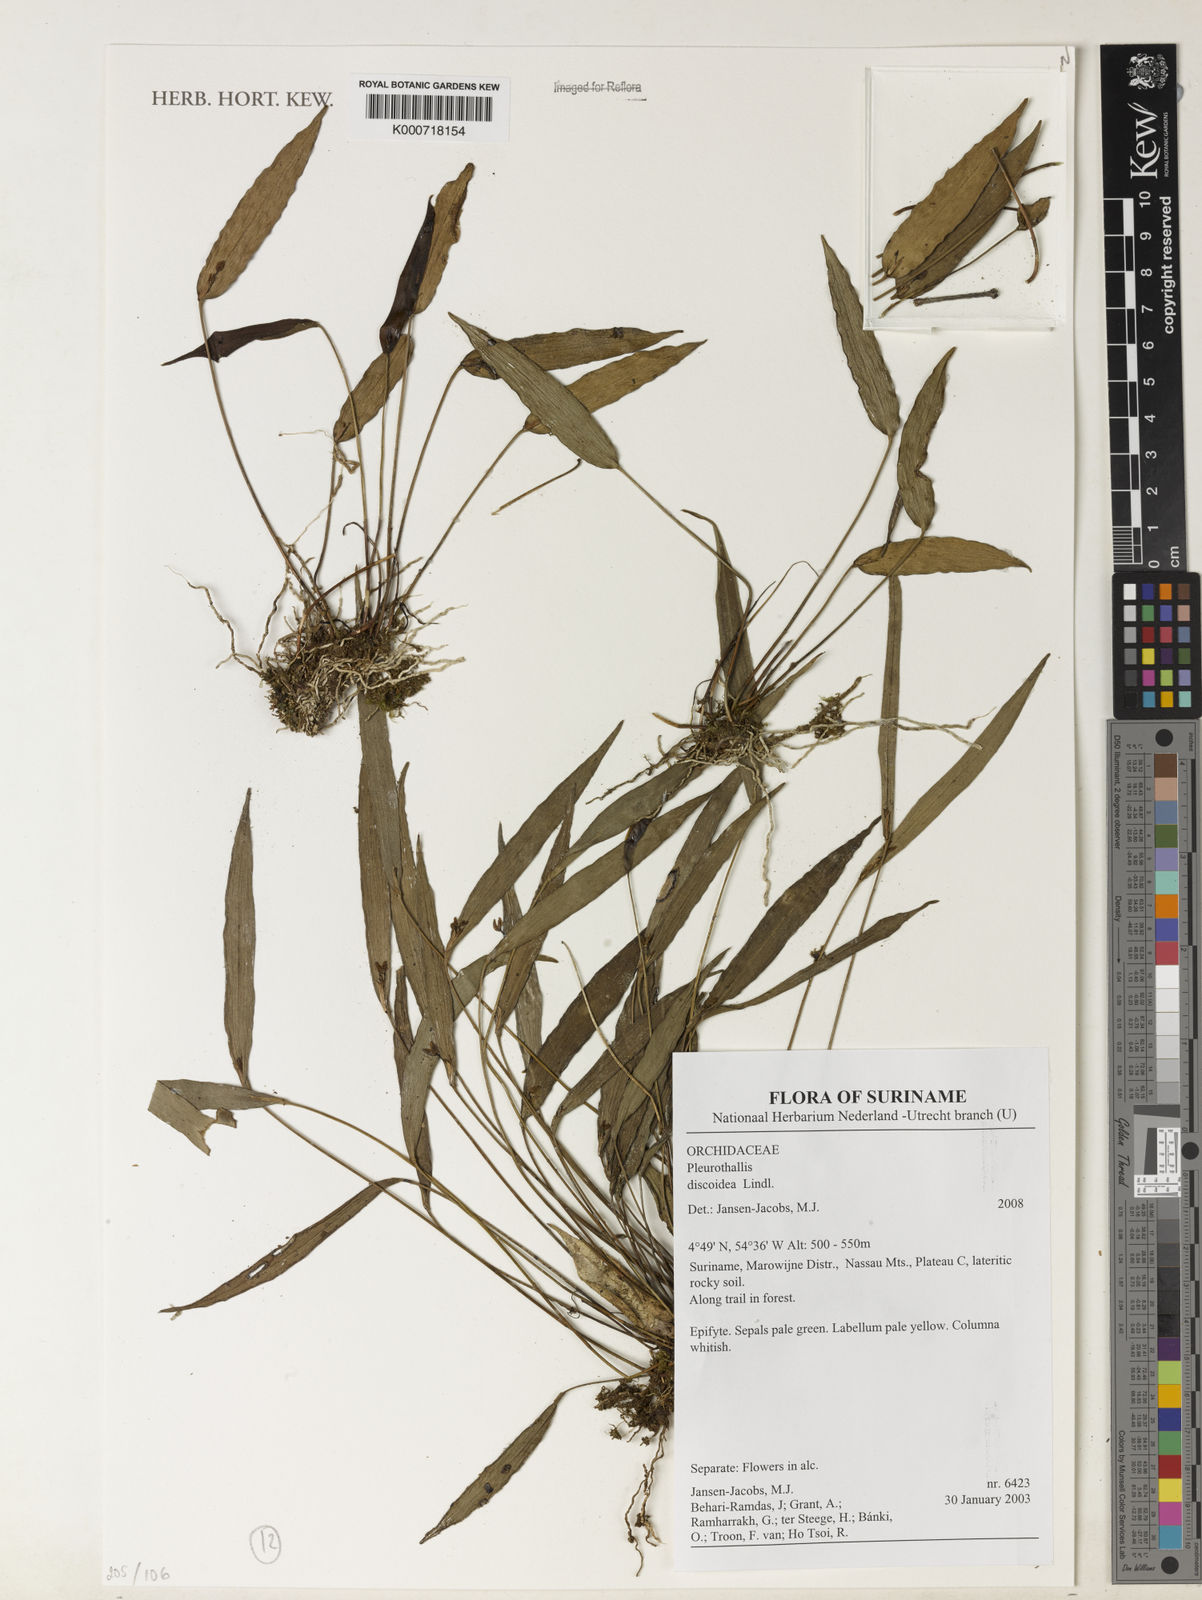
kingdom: Plantae
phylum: Tracheophyta
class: Liliopsida
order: Asparagales
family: Orchidaceae
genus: Pleurothallis
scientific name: Pleurothallis discoidea
